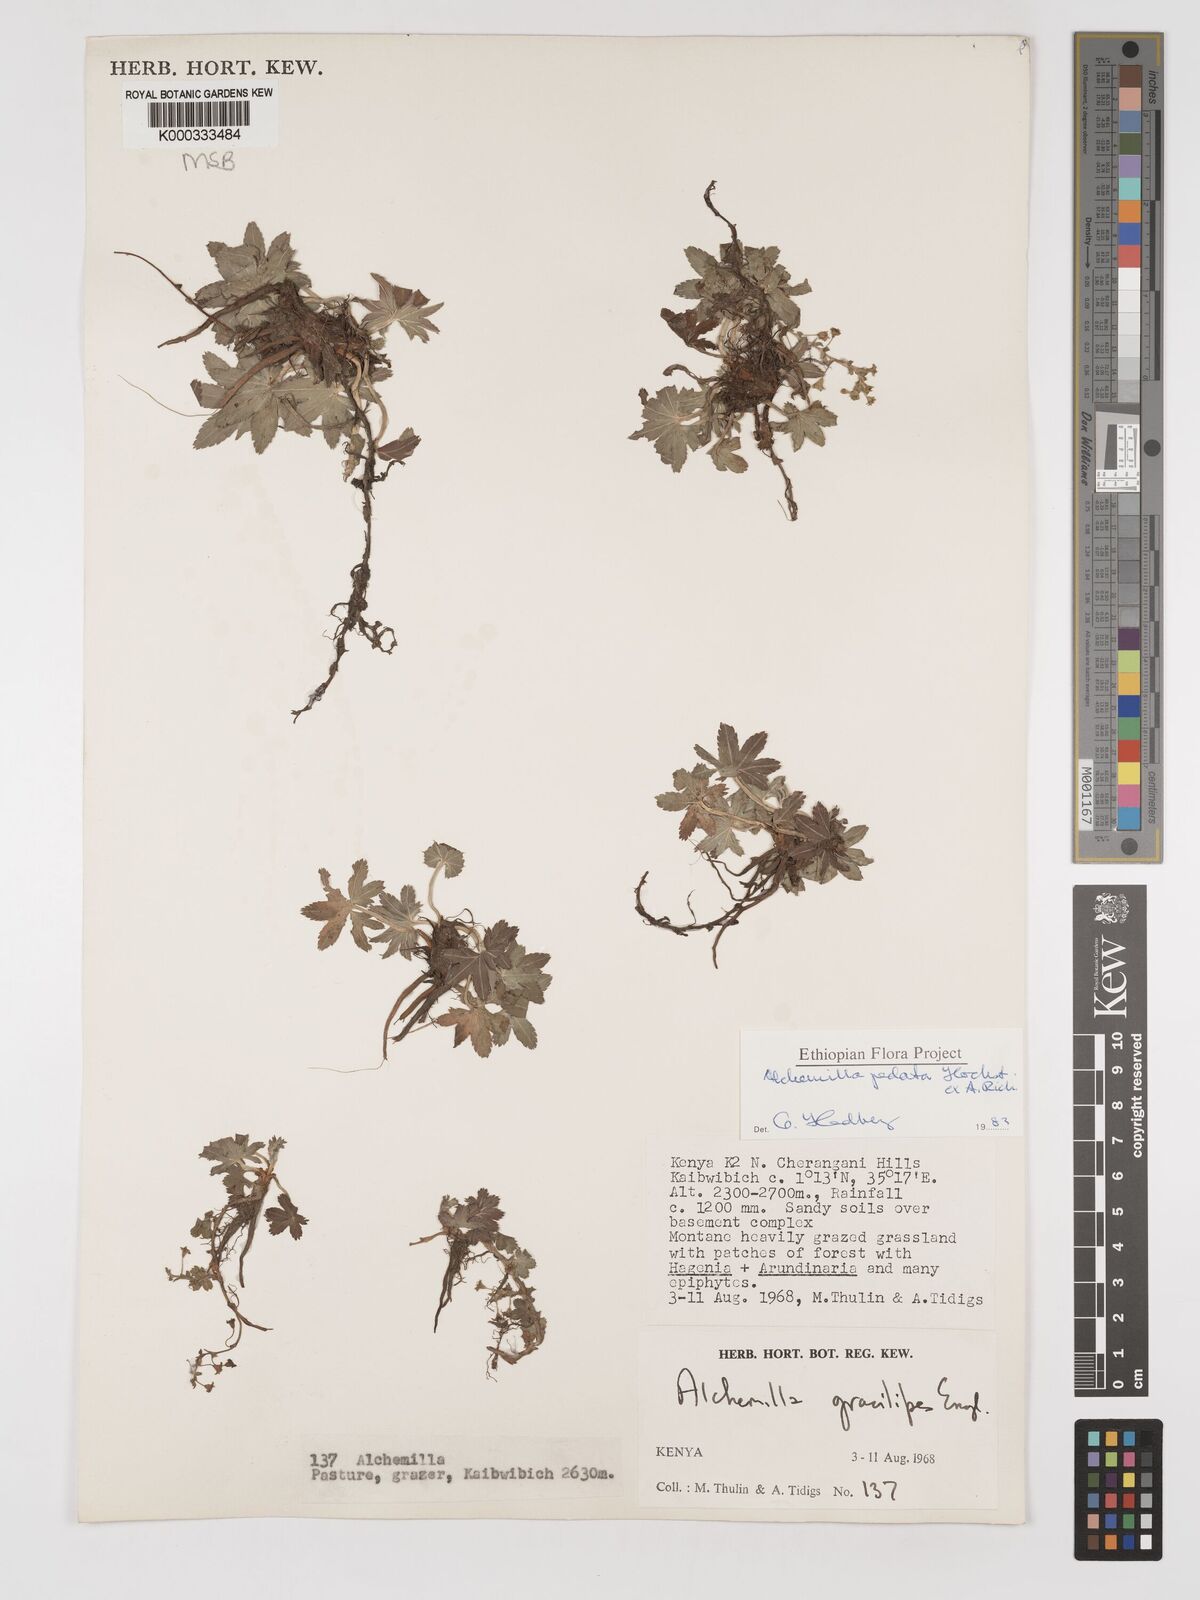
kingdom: Plantae
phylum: Tracheophyta
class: Magnoliopsida
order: Rosales
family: Rosaceae
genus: Alchemilla
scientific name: Alchemilla pedata
